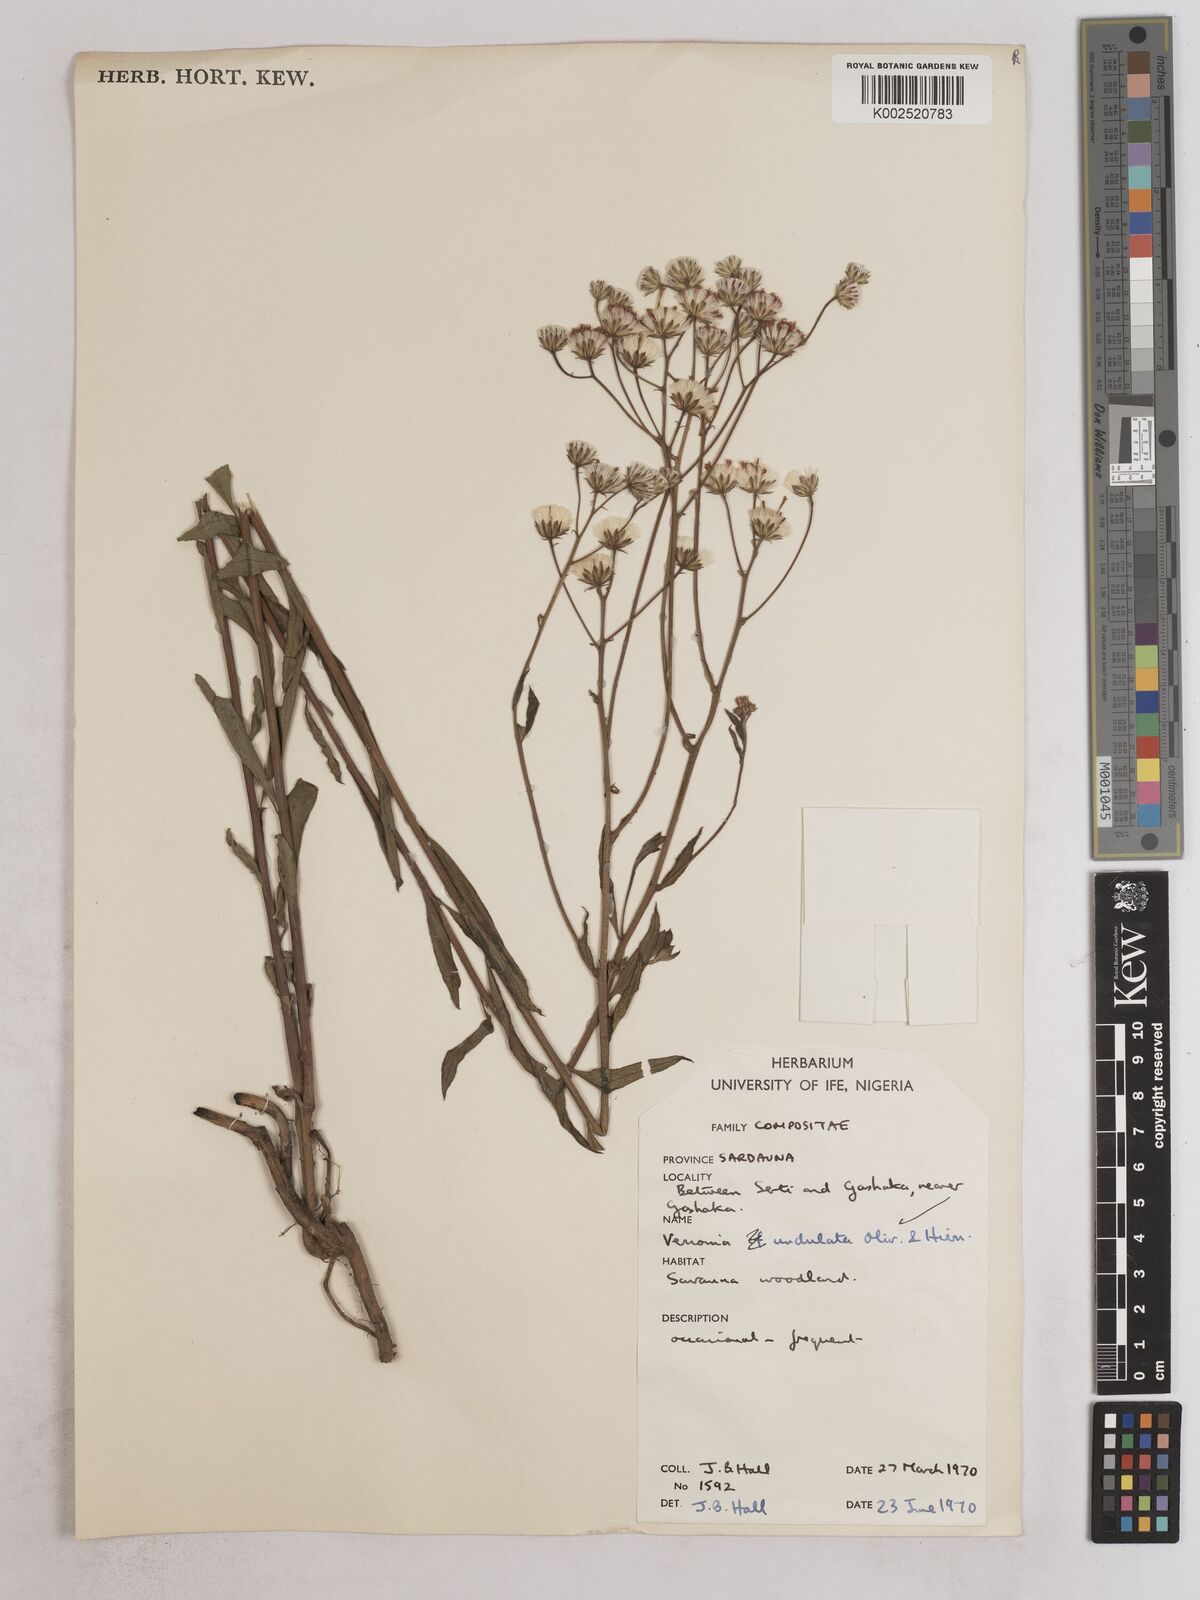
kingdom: Plantae
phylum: Tracheophyta
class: Magnoliopsida
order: Asterales
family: Asteraceae
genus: Vernonia
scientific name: Vernonia golungensis
